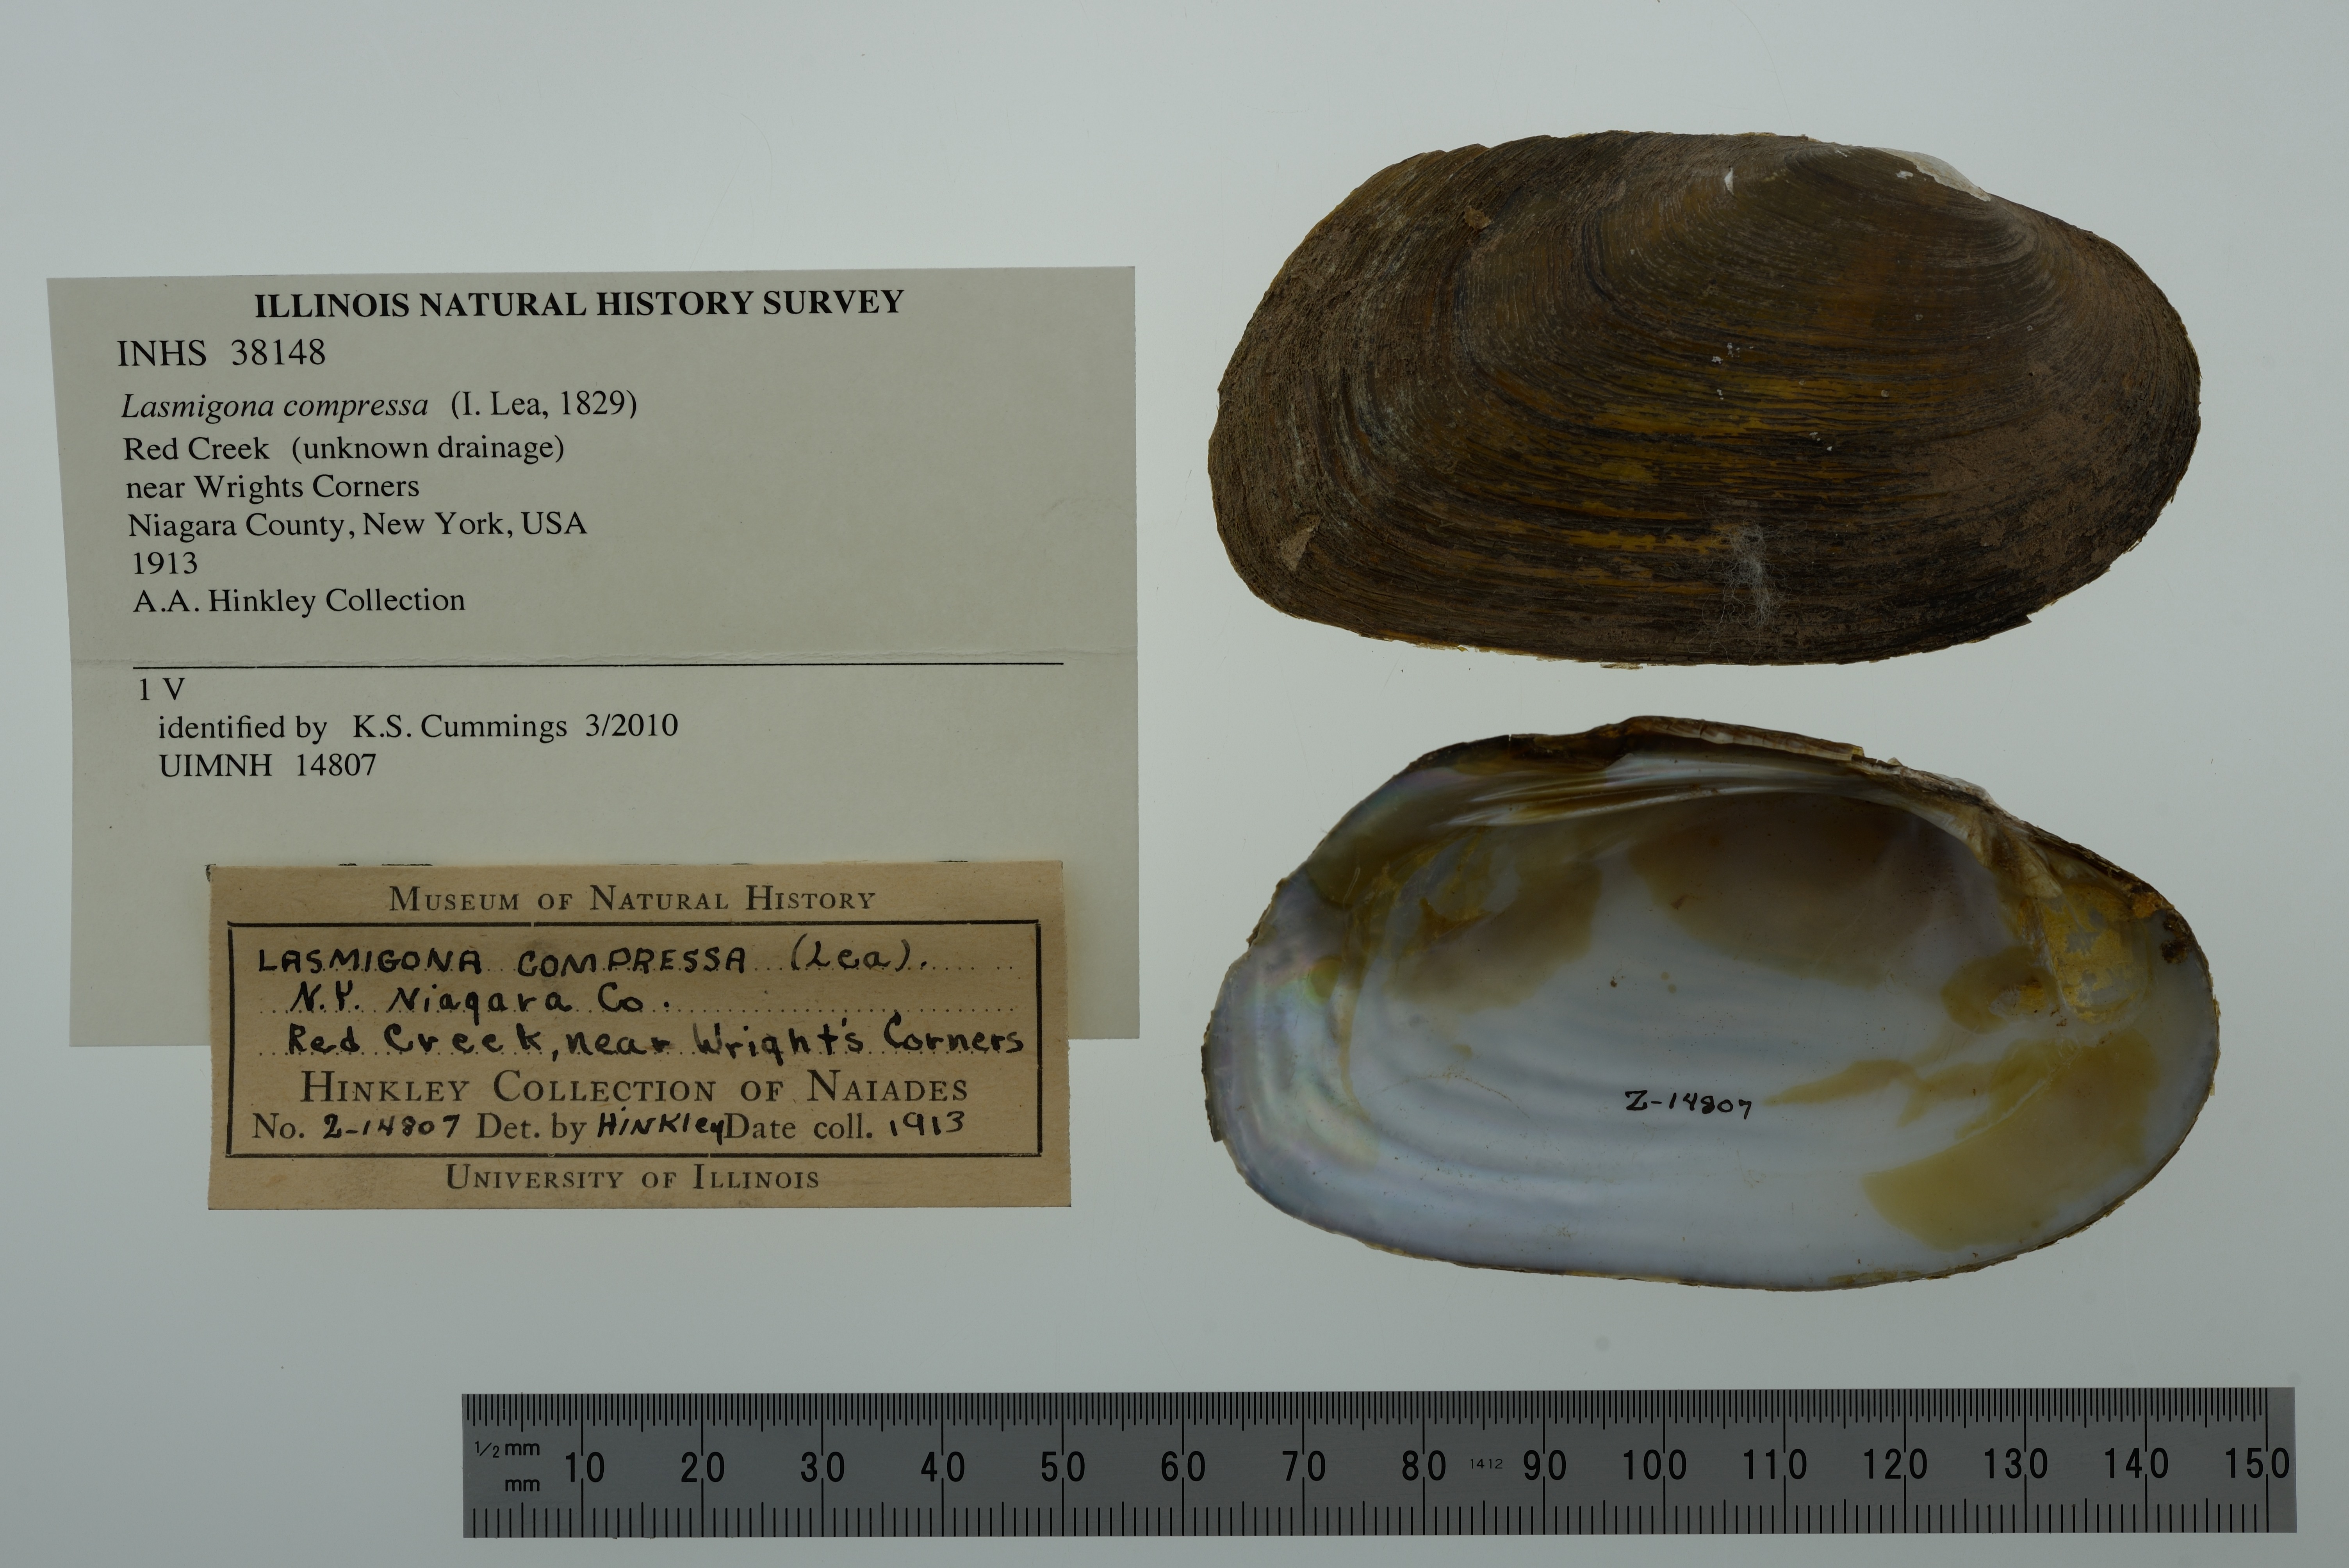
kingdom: Animalia
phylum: Mollusca
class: Bivalvia
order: Unionida
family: Unionidae
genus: Lasmigona
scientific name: Lasmigona compressa
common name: Creek heelsplitter
